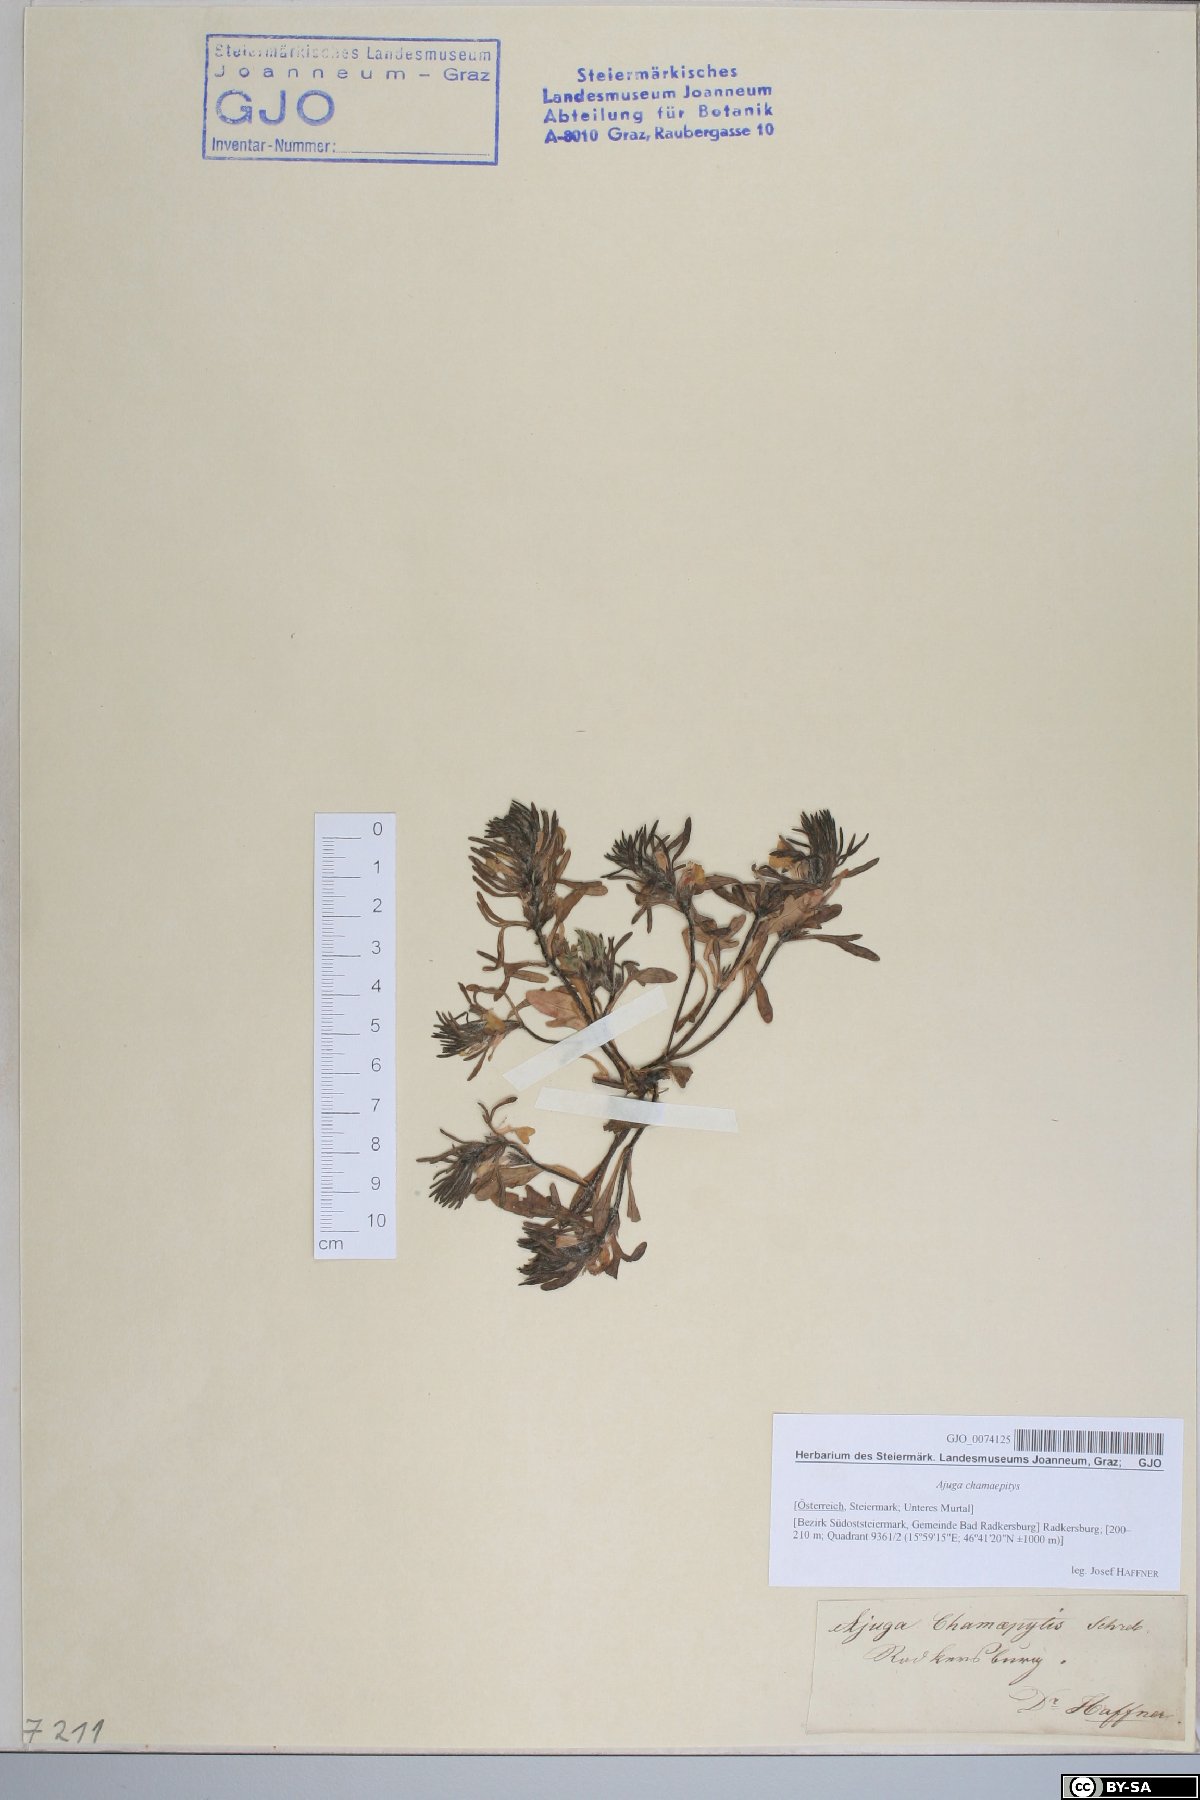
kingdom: Plantae
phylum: Tracheophyta
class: Magnoliopsida
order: Lamiales
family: Lamiaceae
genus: Ajuga
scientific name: Ajuga chamaepitys
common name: Ground-pine
